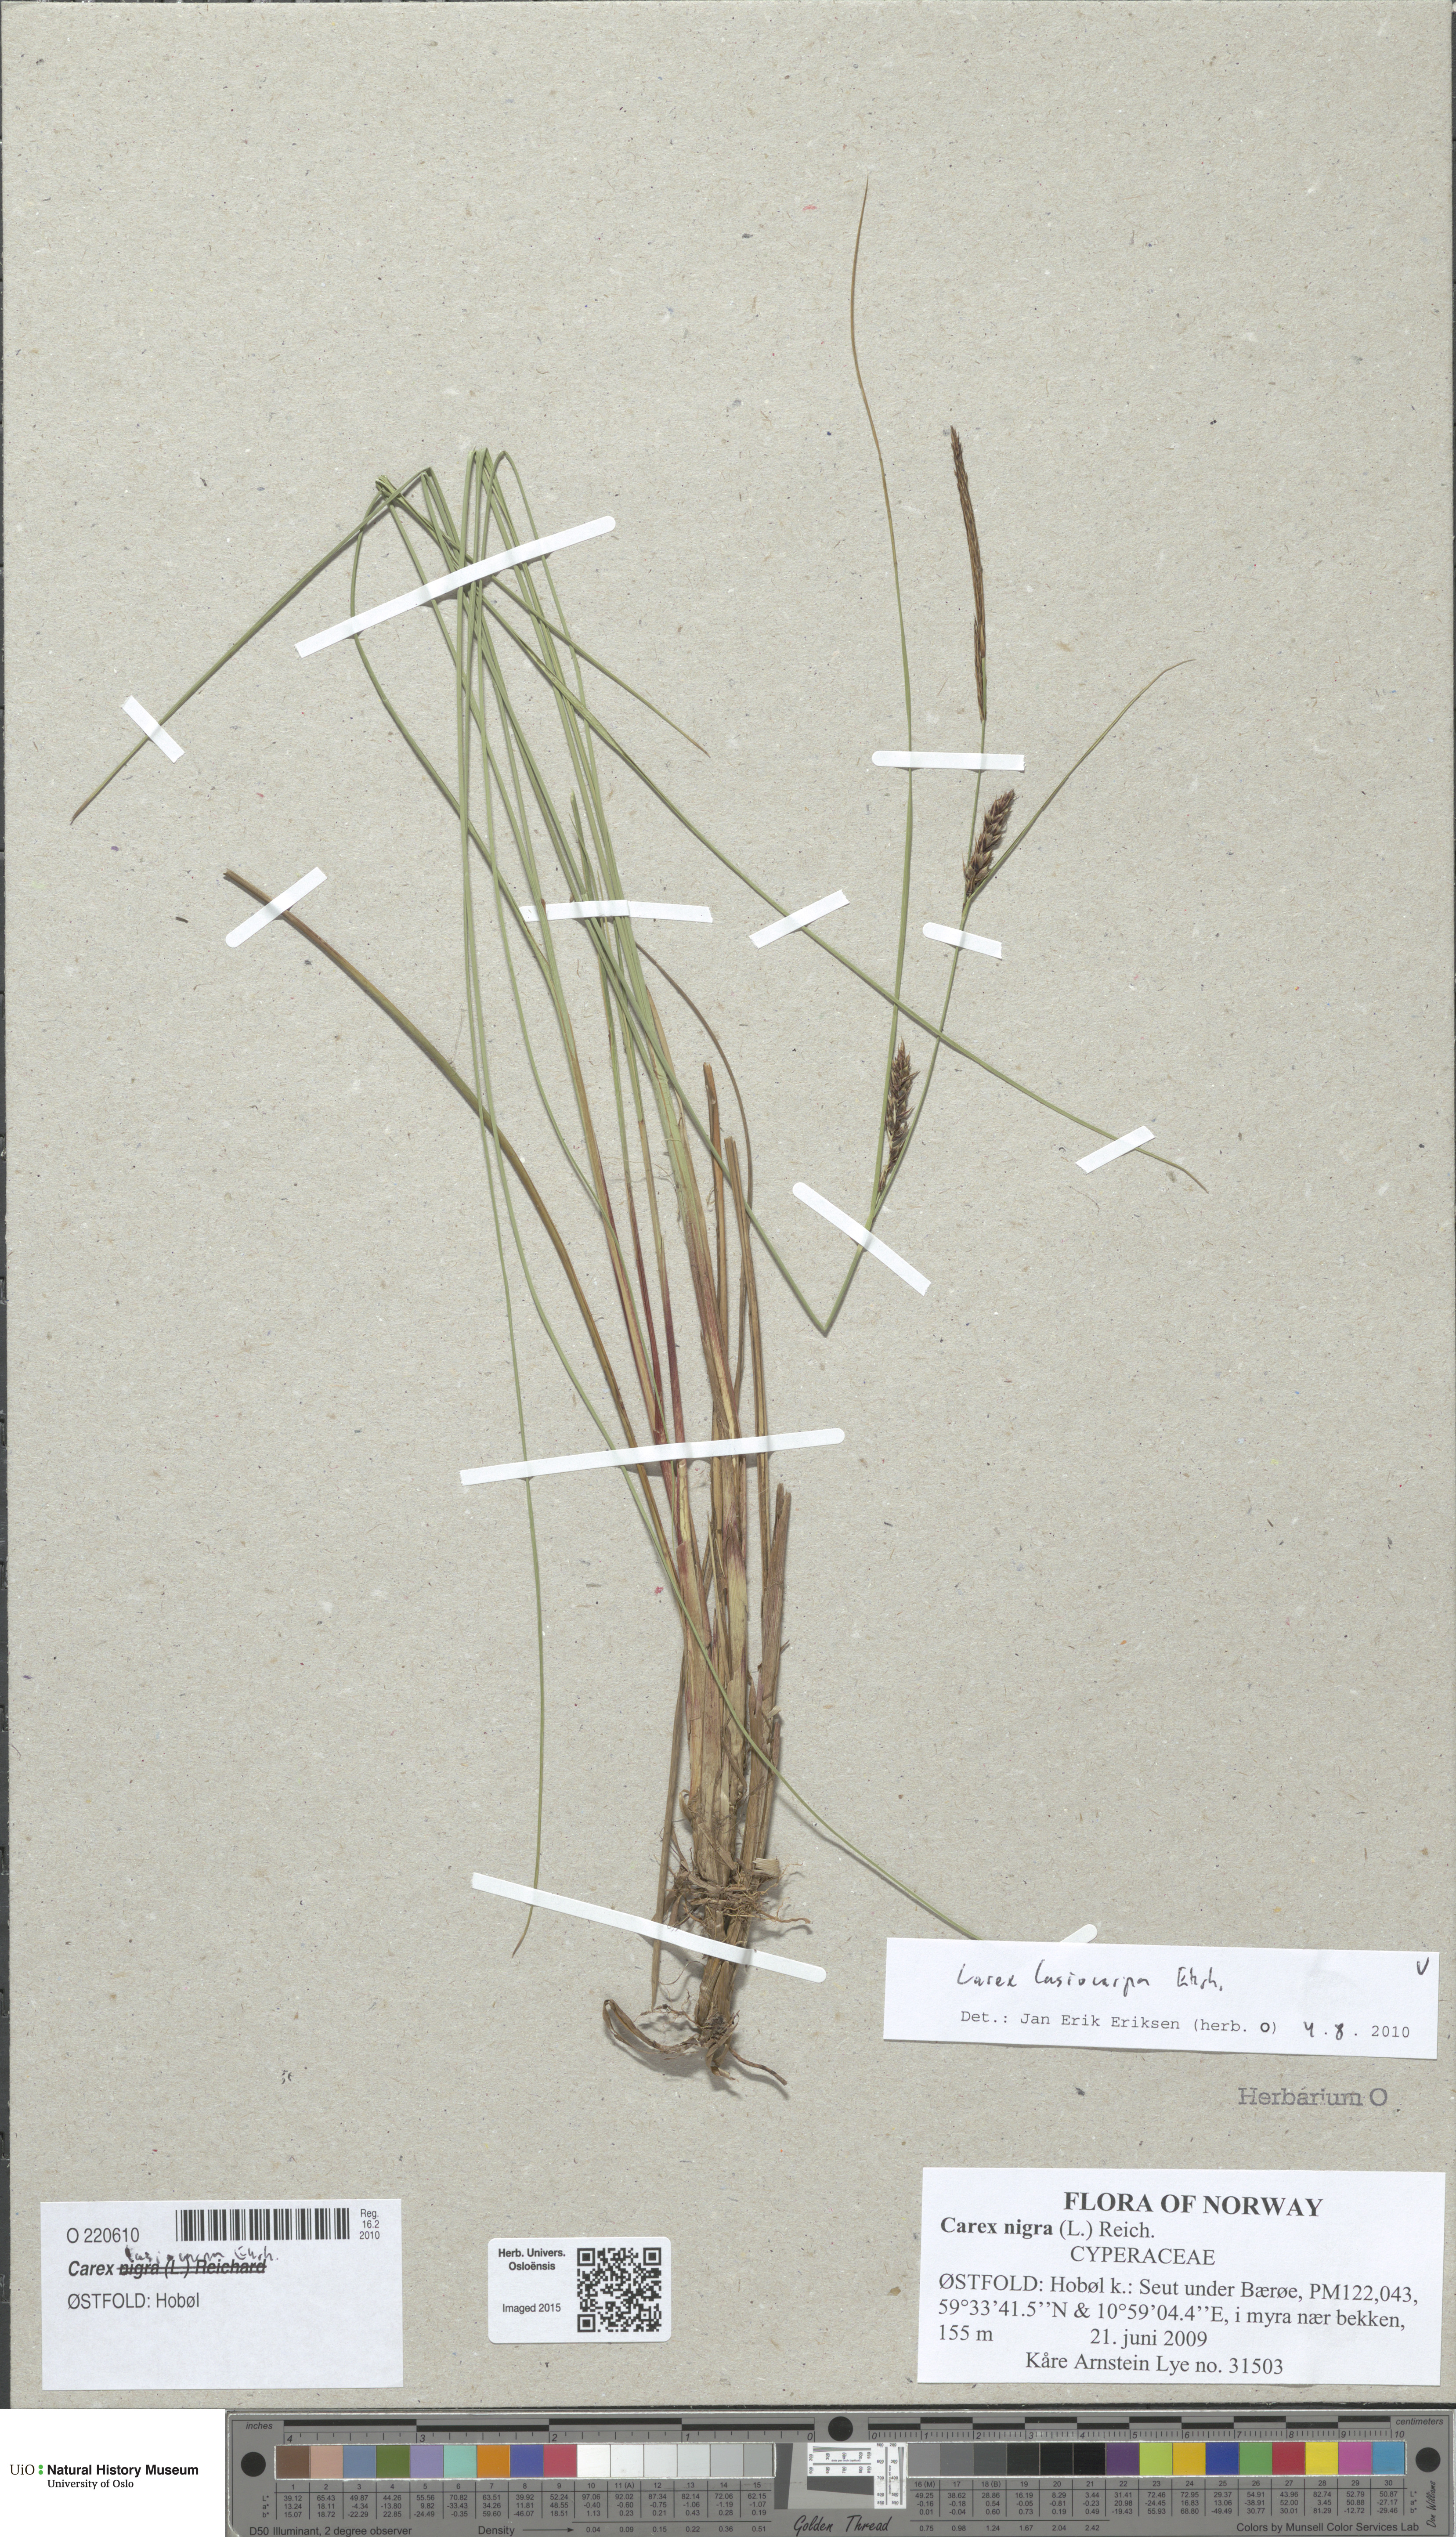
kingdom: Plantae
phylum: Tracheophyta
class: Liliopsida
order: Poales
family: Cyperaceae
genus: Carex
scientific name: Carex lasiocarpa
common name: Slender sedge
